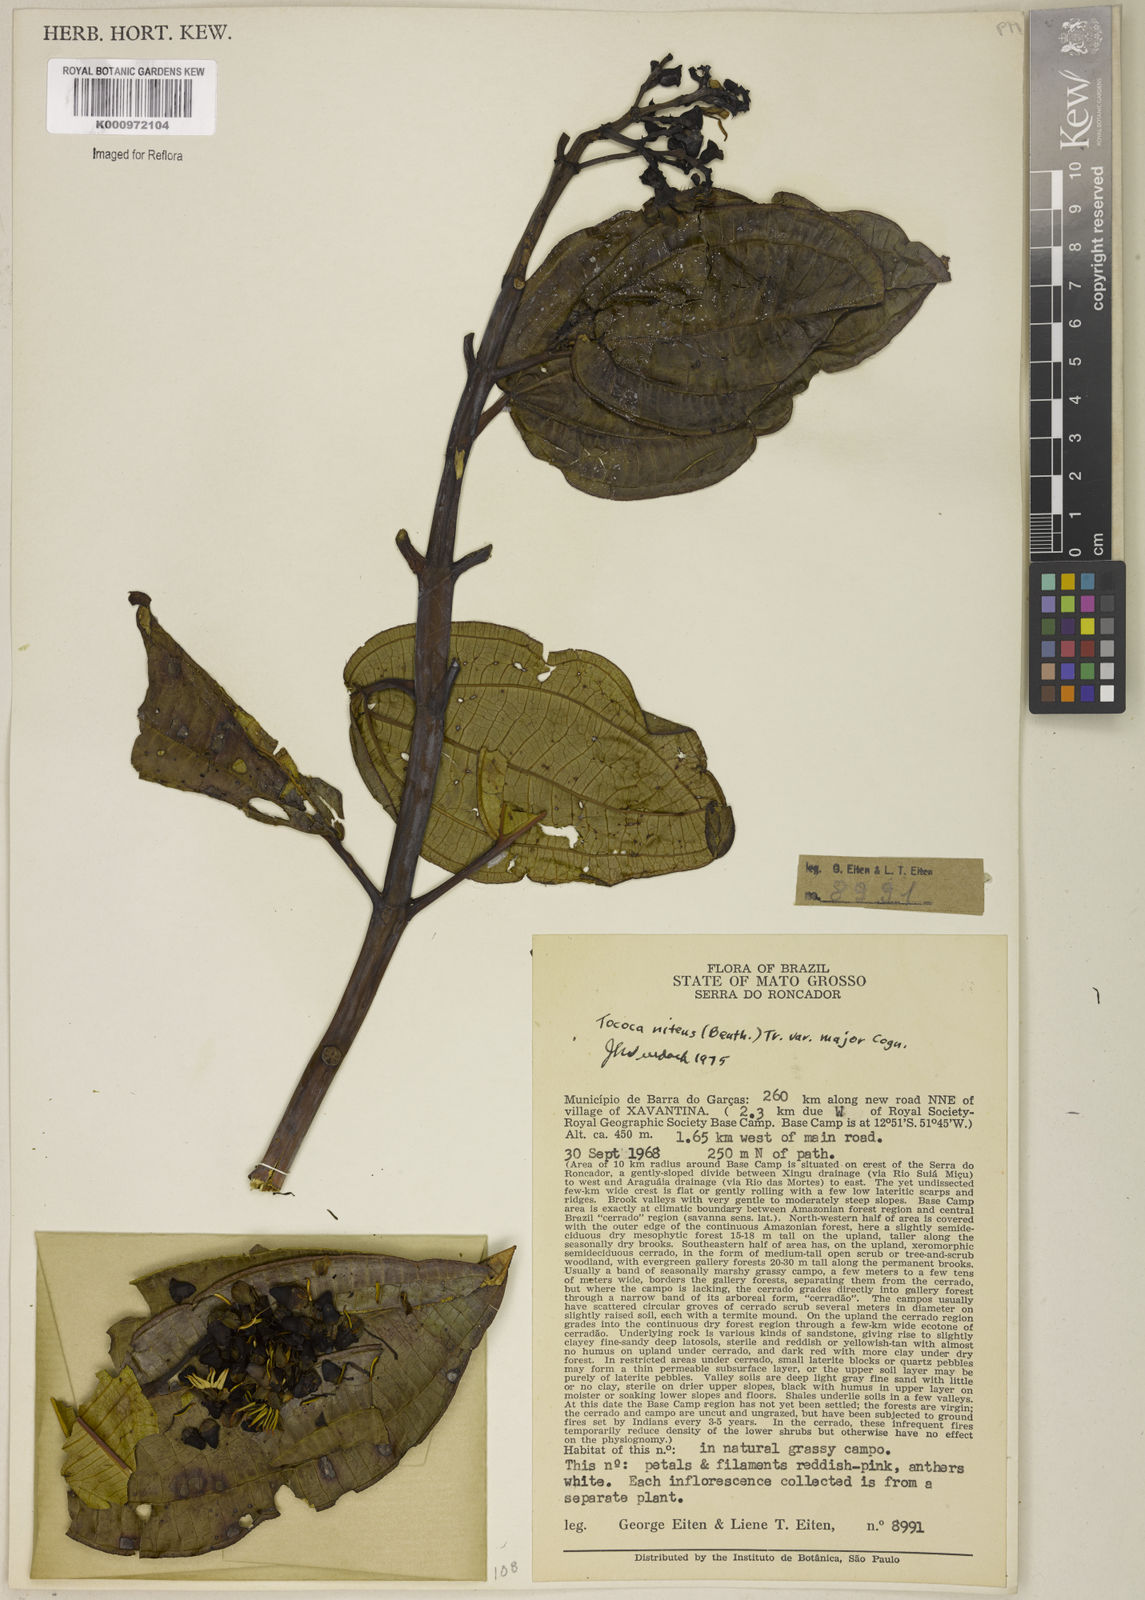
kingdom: Plantae
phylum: Tracheophyta
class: Magnoliopsida
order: Myrtales
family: Melastomataceae
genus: Miconia
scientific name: Miconia nitens
